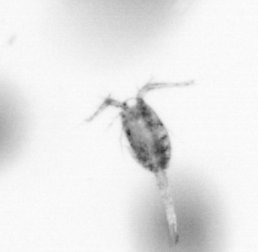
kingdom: Animalia
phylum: Arthropoda
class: Copepoda
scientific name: Copepoda
